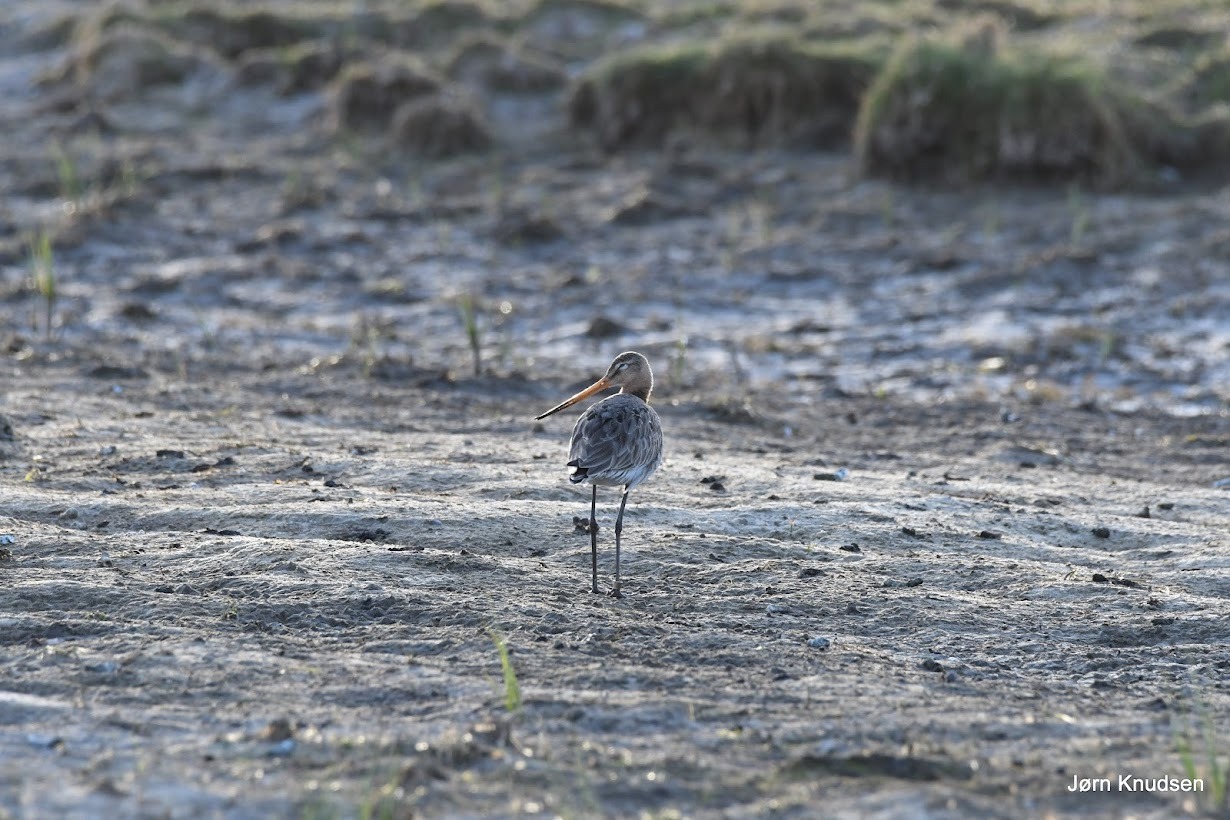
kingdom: Animalia
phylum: Chordata
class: Aves
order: Charadriiformes
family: Scolopacidae
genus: Limosa
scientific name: Limosa limosa
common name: Stor kobbersneppe
